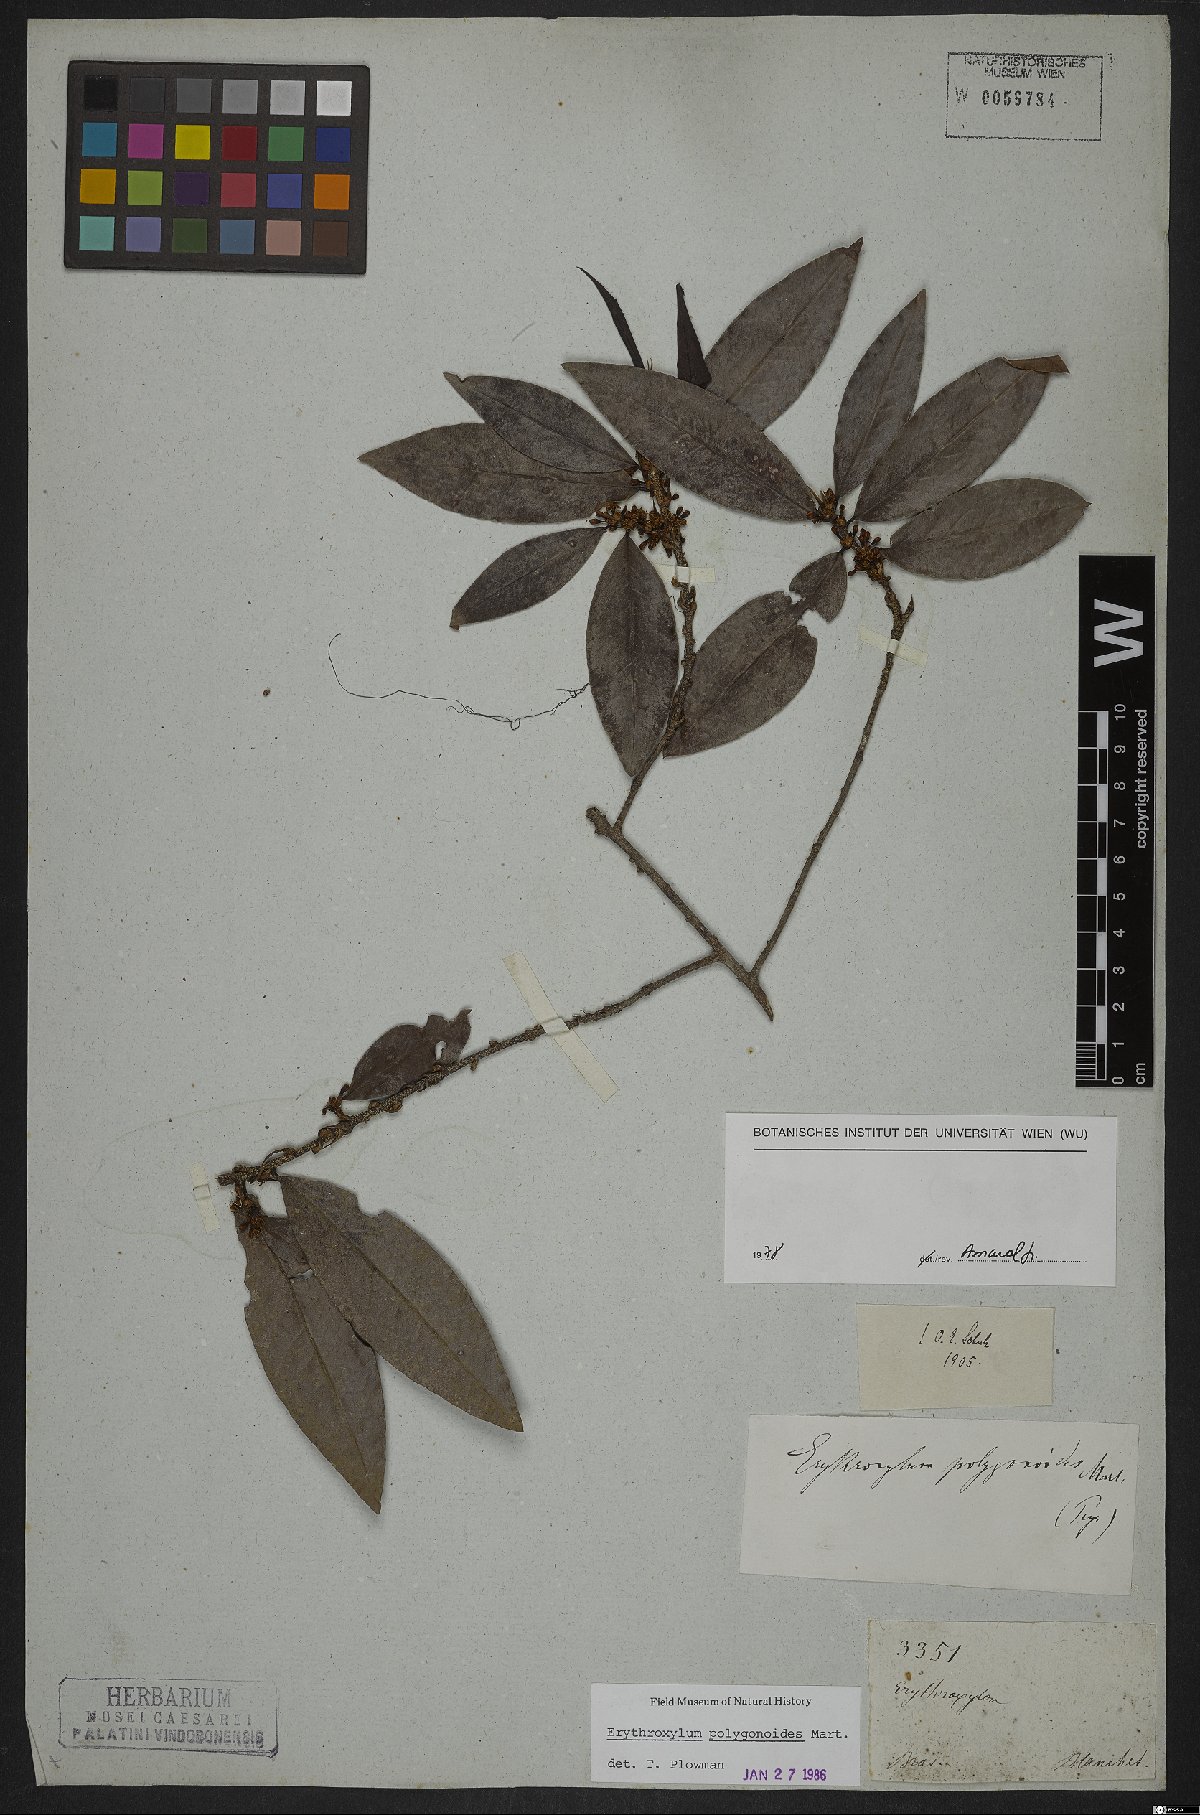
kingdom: Plantae
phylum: Tracheophyta
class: Magnoliopsida
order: Malpighiales
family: Erythroxylaceae
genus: Erythroxylum
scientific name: Erythroxylum polygonoides
